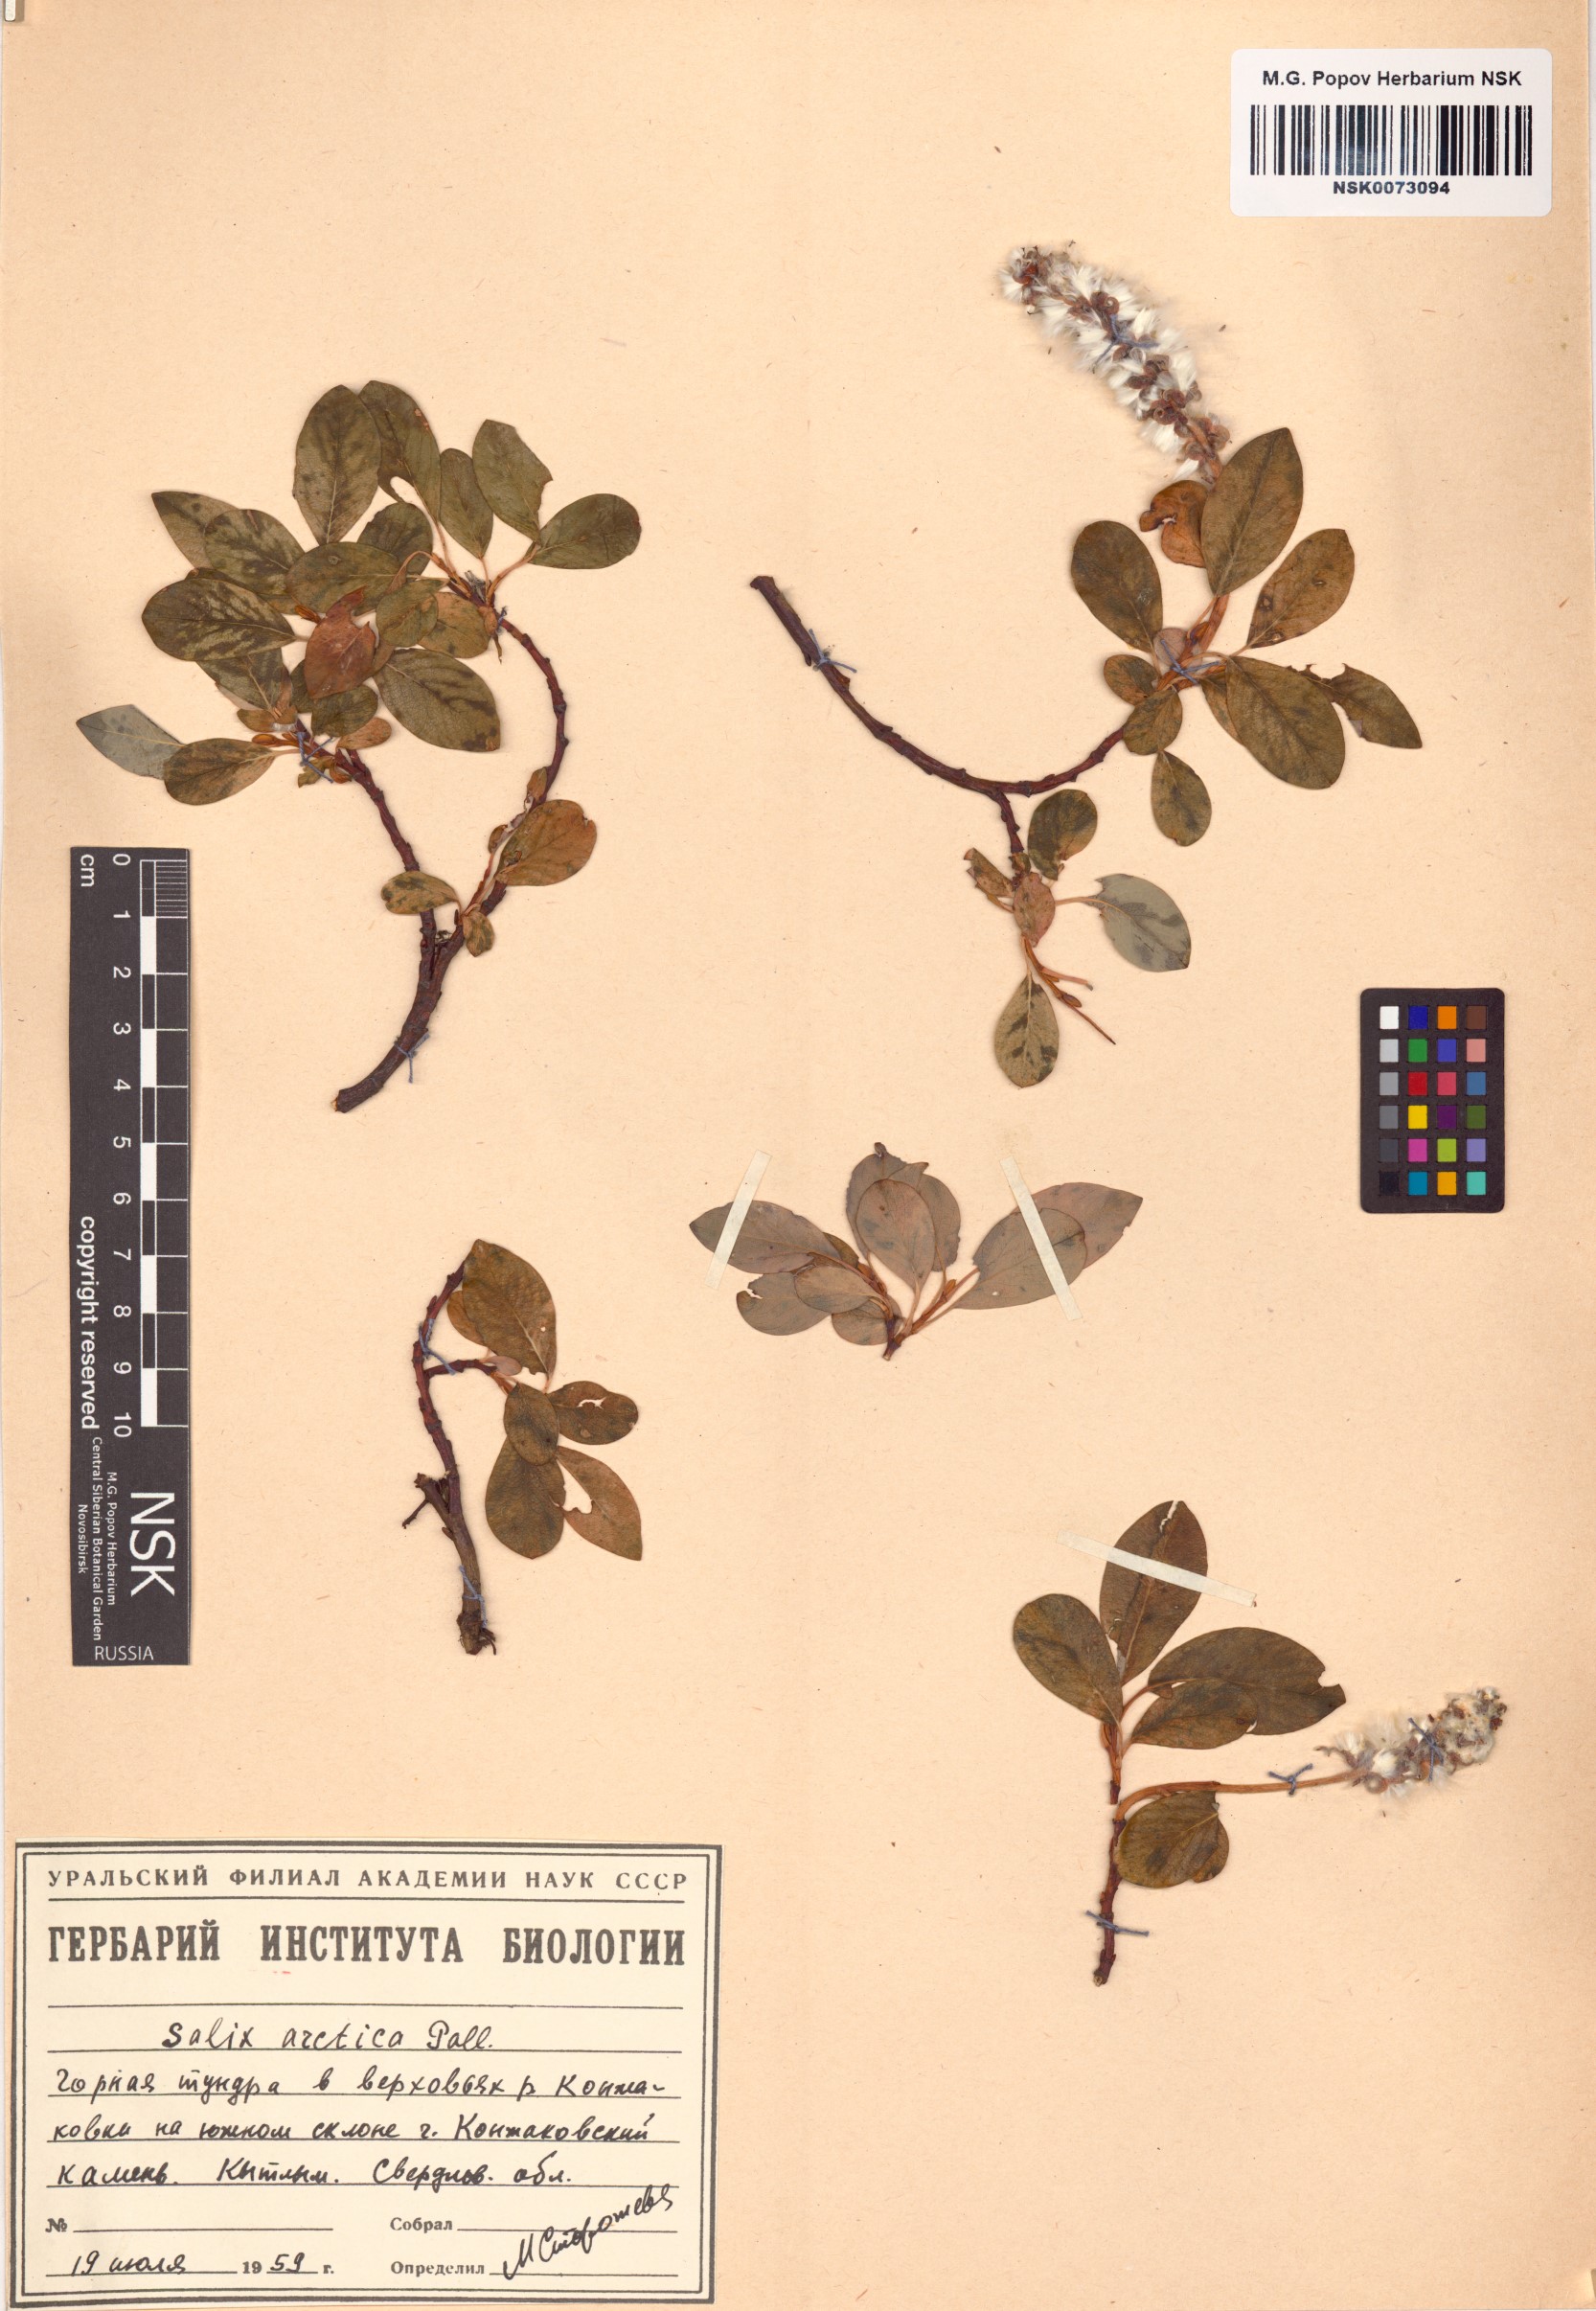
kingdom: Plantae
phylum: Tracheophyta
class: Magnoliopsida
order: Malpighiales
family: Salicaceae
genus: Salix
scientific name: Salix arctica
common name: Arctic willow
